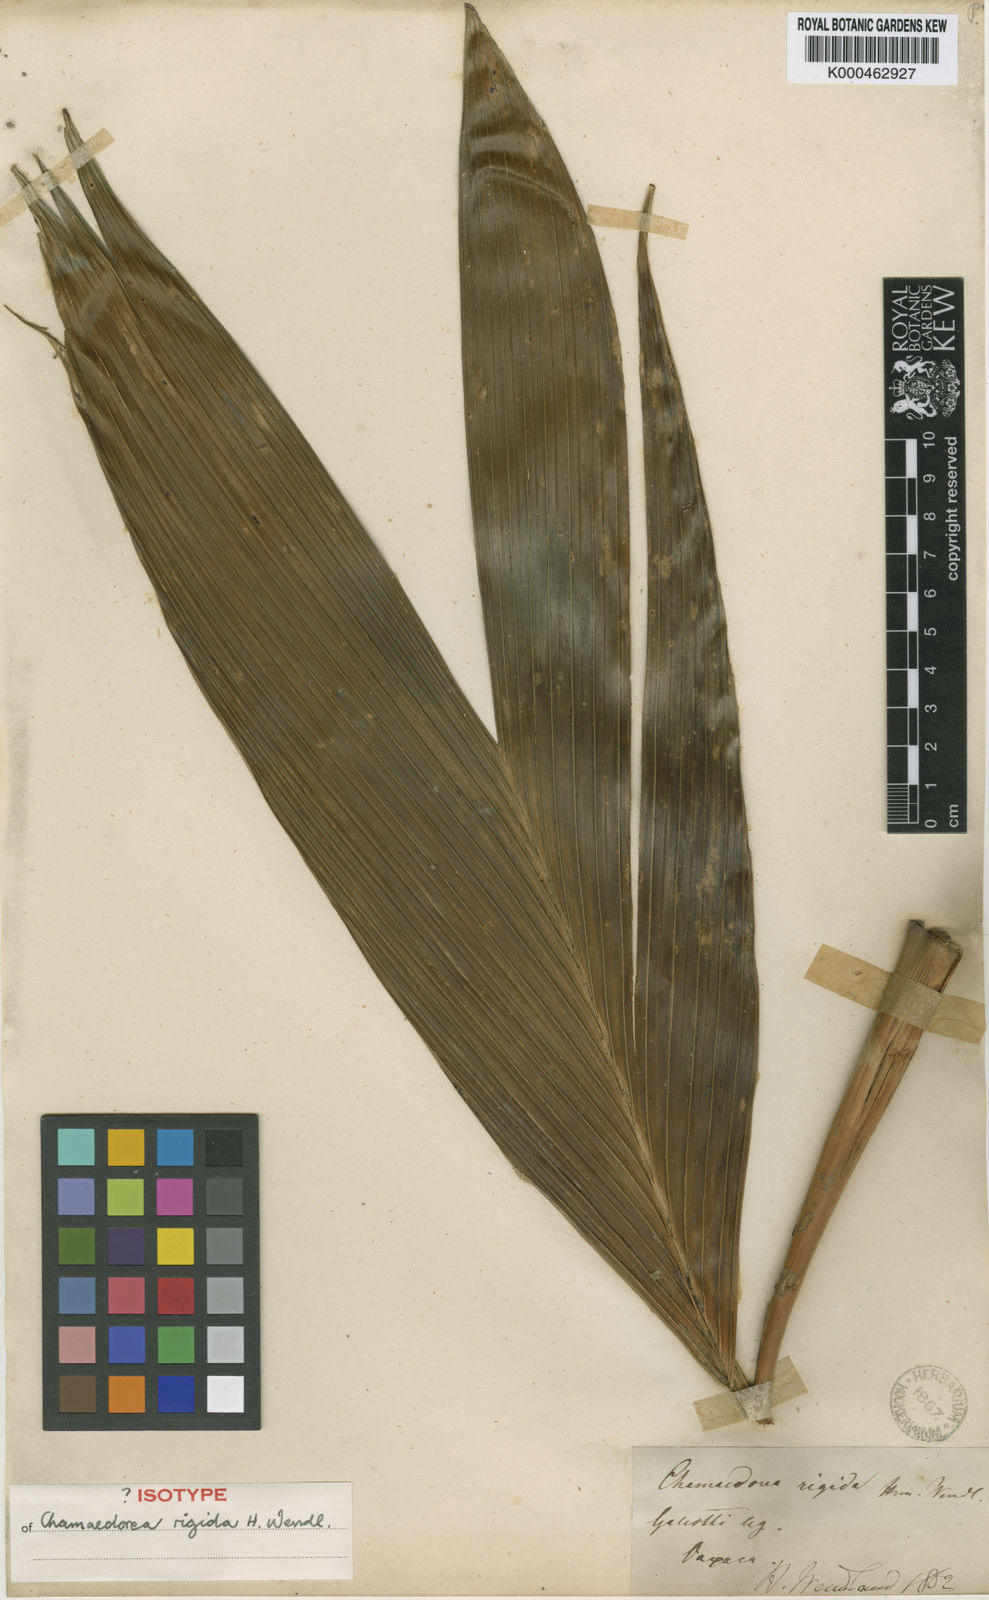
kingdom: Plantae
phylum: Tracheophyta
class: Liliopsida
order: Arecales
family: Arecaceae
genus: Chamaedorea
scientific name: Chamaedorea rigida
